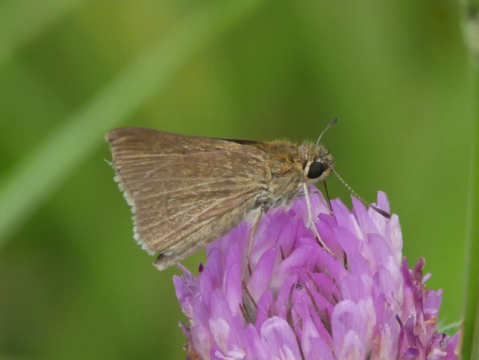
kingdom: Animalia
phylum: Arthropoda
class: Insecta
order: Lepidoptera
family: Hesperiidae
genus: Nastra
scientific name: Nastra lherminier
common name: Swarthy Skipper
